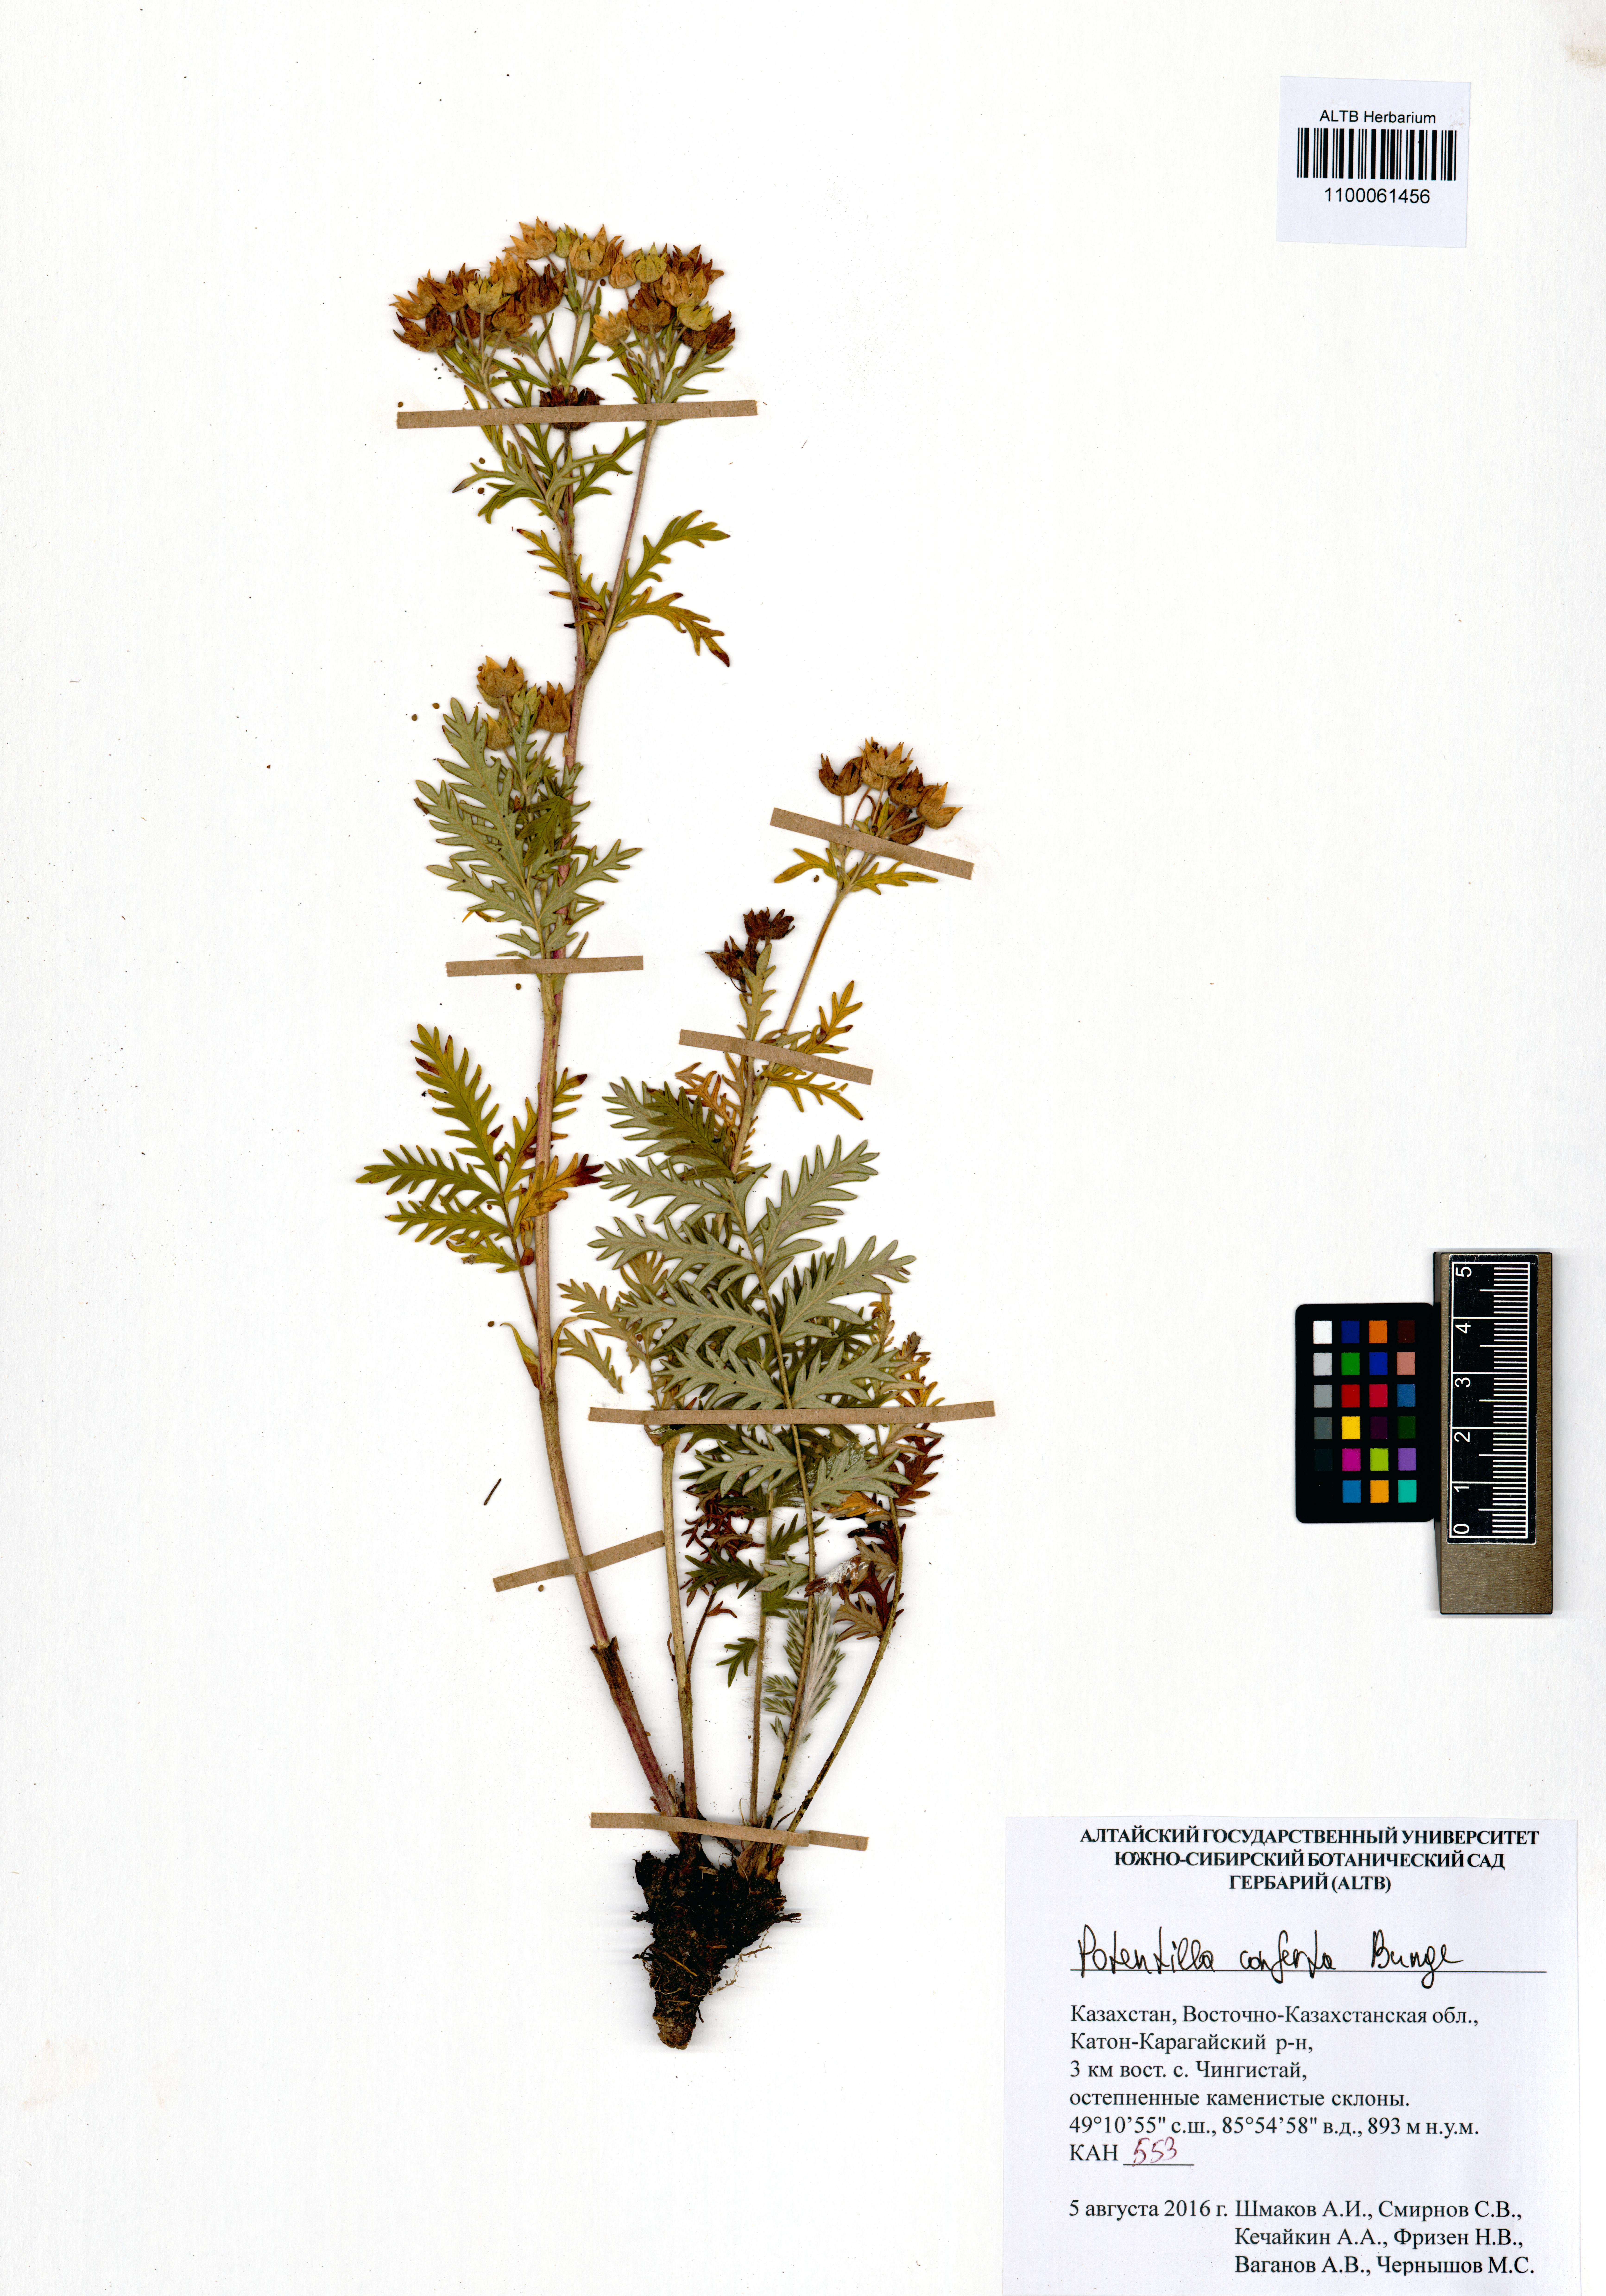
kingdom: Plantae
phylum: Tracheophyta
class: Magnoliopsida
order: Rosales
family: Rosaceae
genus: Potentilla
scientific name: Potentilla conferta
